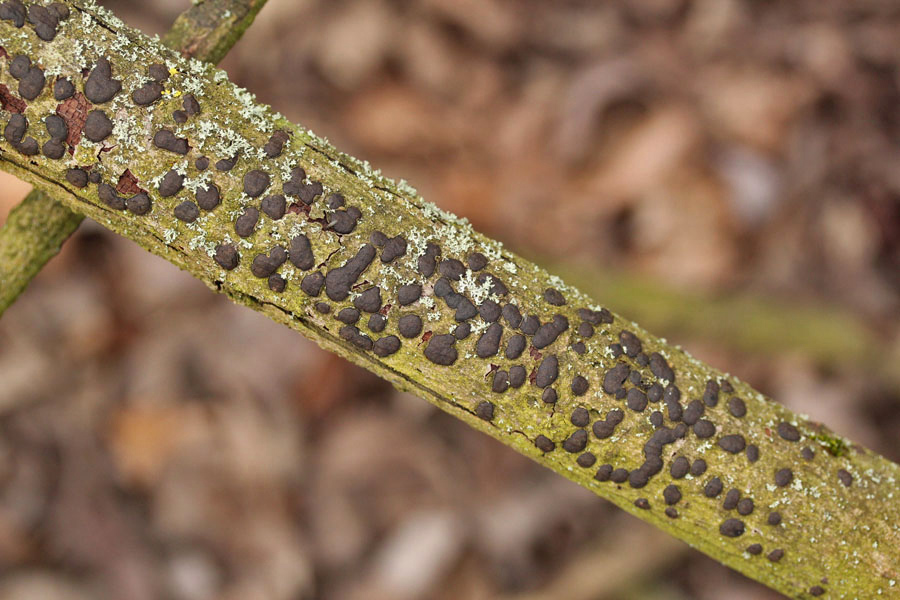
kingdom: Fungi
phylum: Ascomycota
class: Sordariomycetes
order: Xylariales
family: Diatrypaceae
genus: Diatrype
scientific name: Diatrype bullata
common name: pile-kulskorpe
